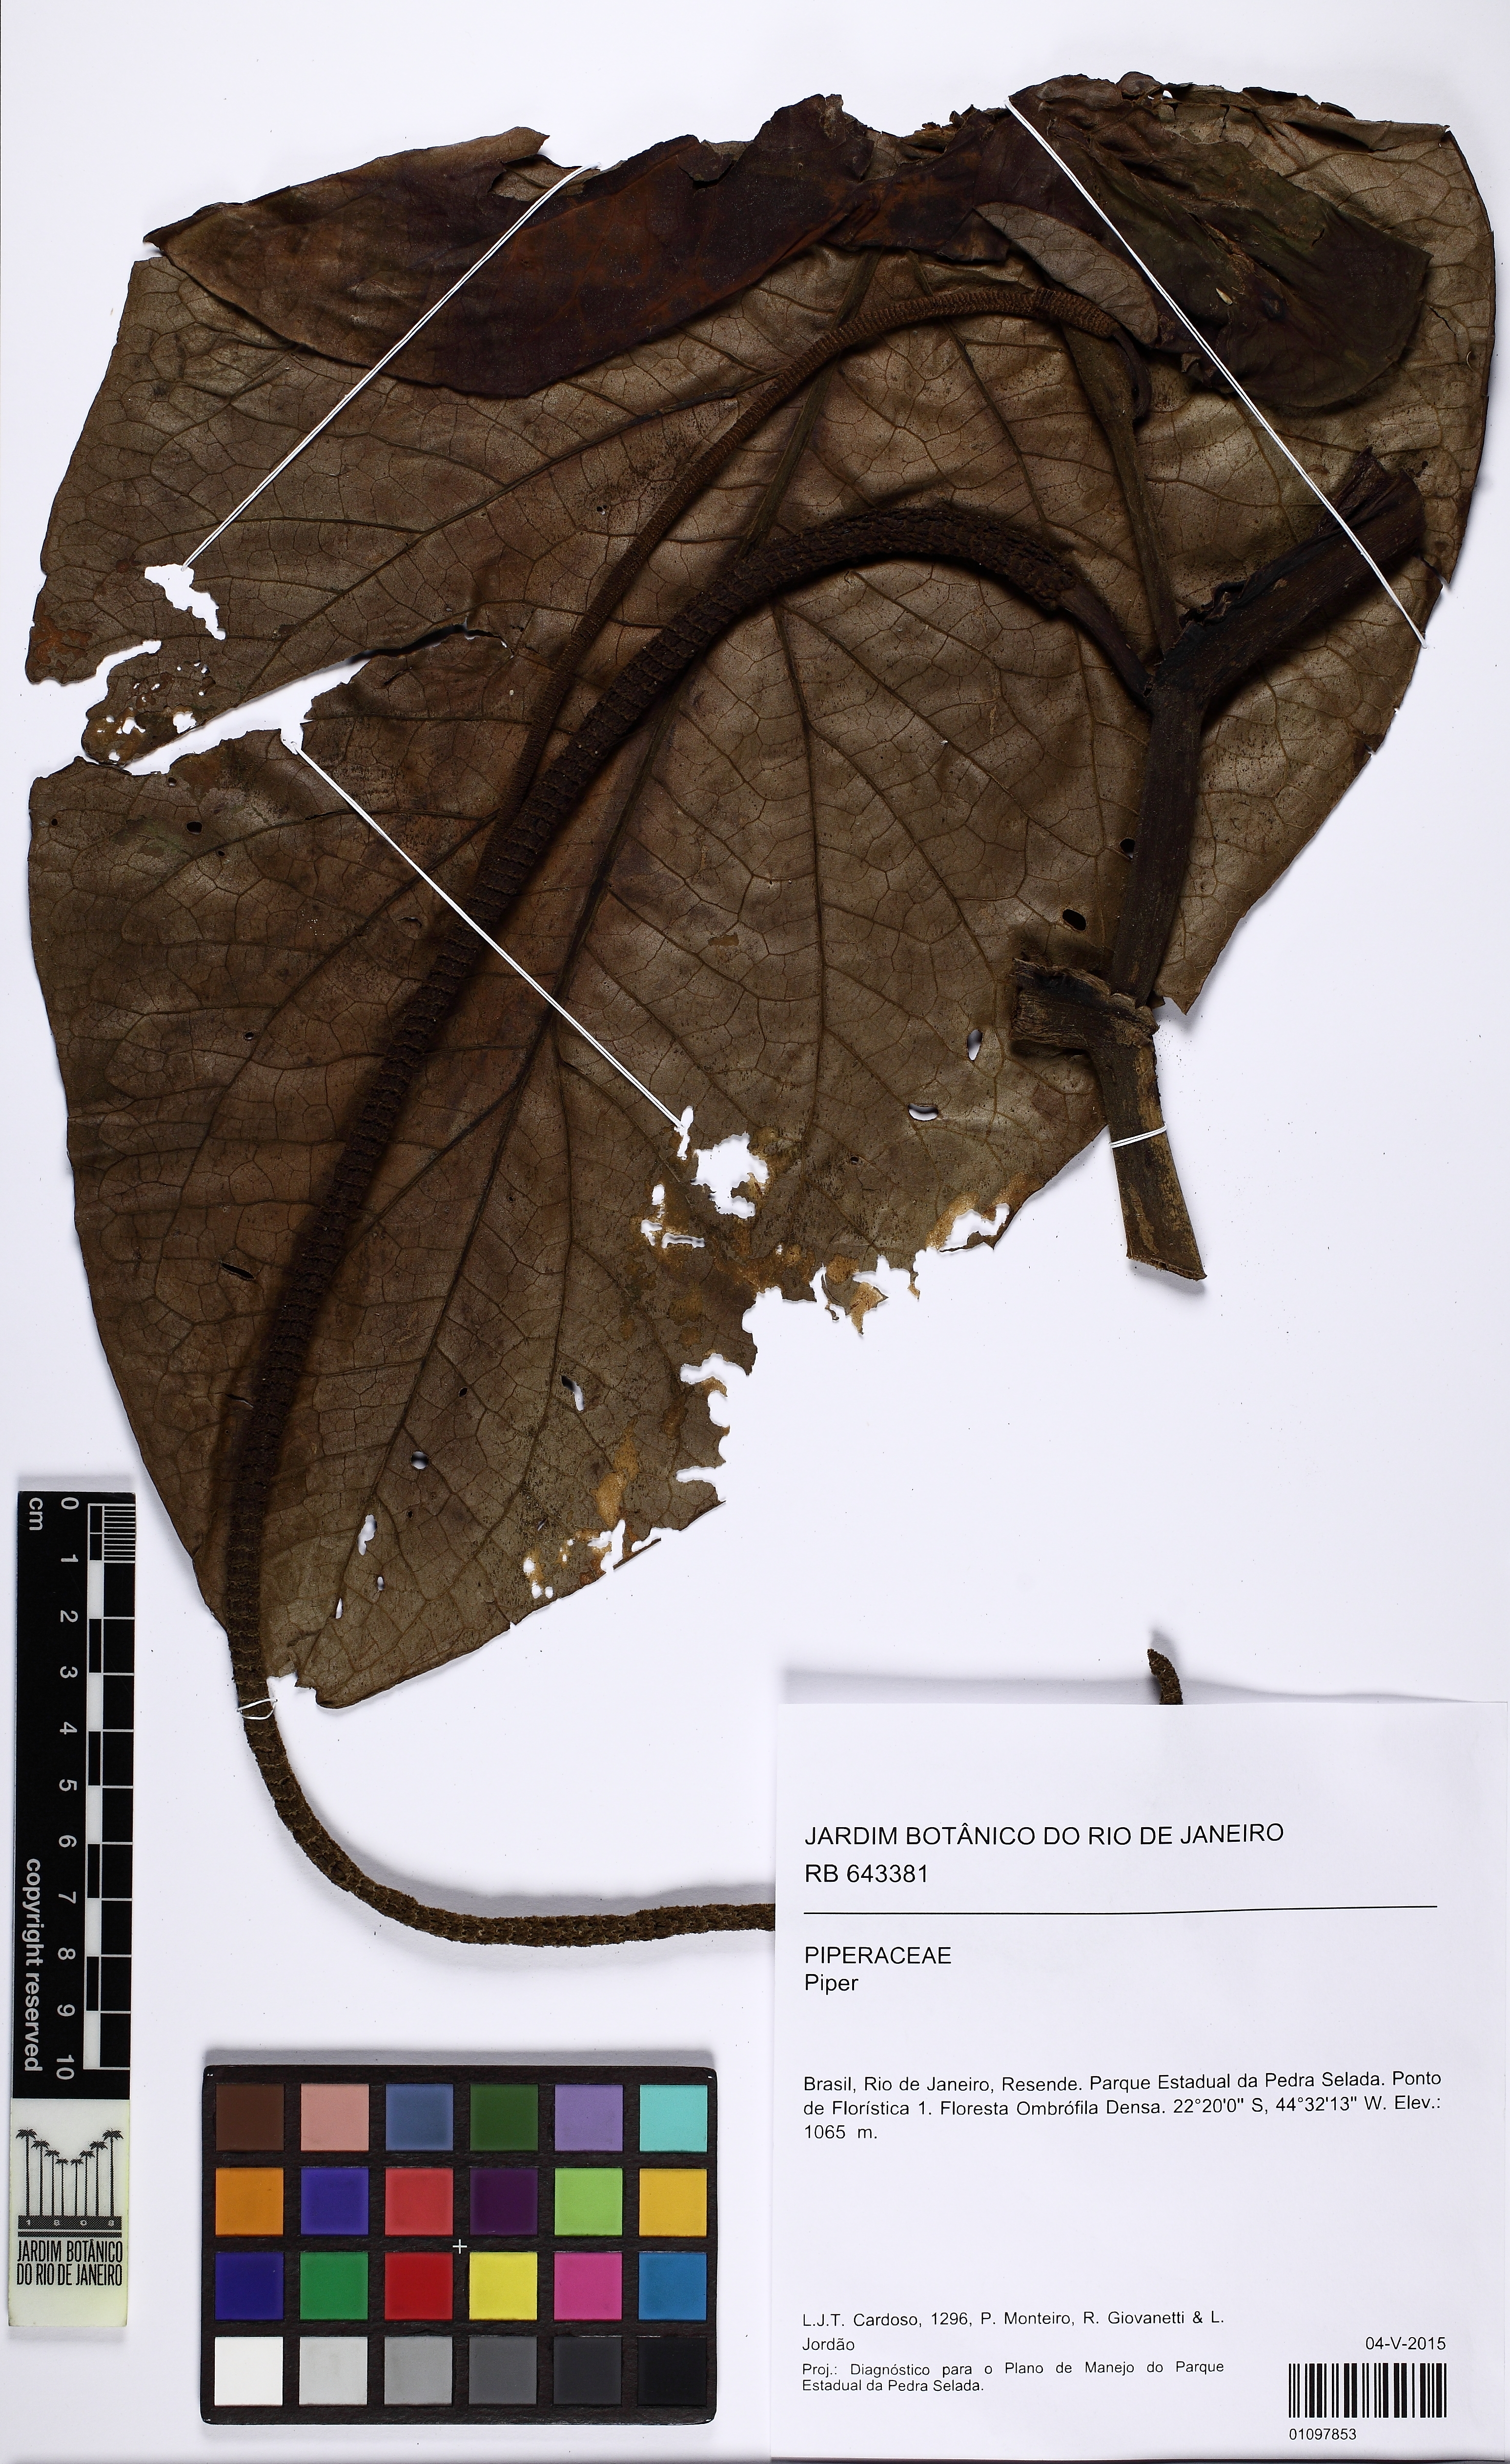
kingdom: Plantae
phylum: Tracheophyta
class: Magnoliopsida
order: Piperales
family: Piperaceae
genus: Piper
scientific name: Piper cernuum
